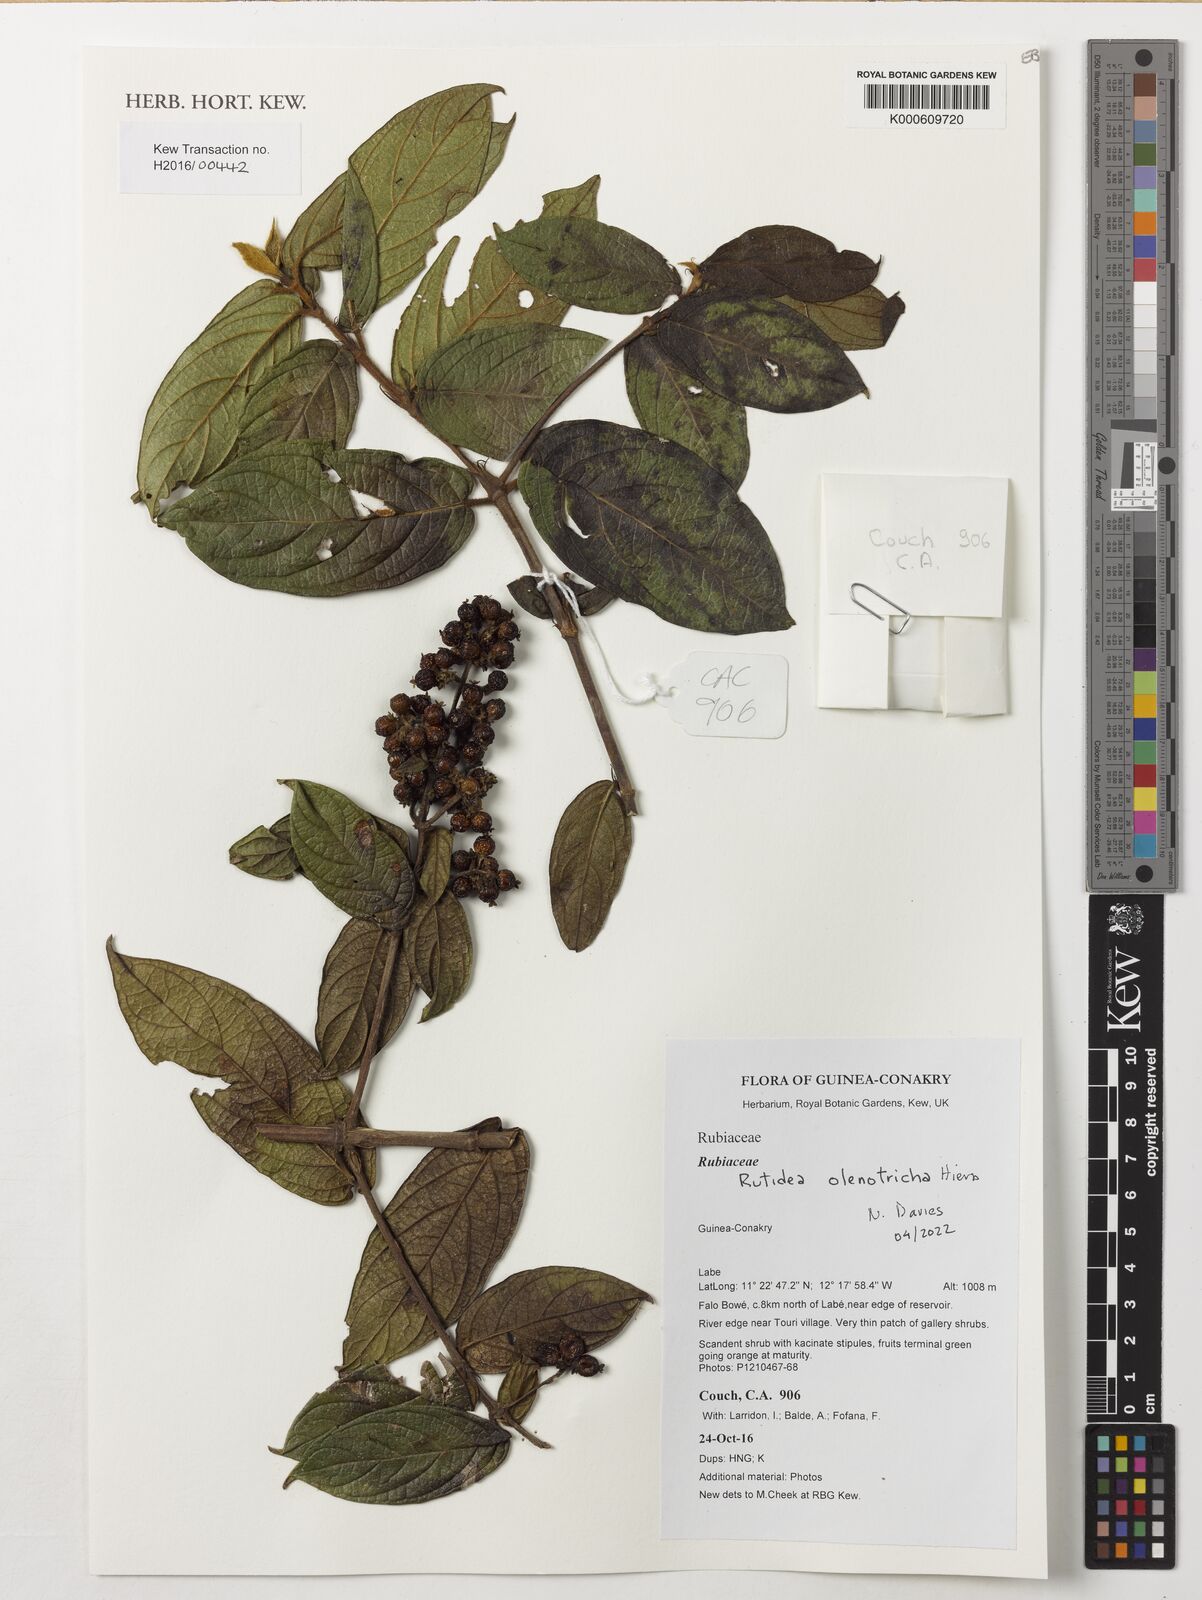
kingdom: Plantae
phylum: Tracheophyta
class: Magnoliopsida
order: Gentianales
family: Rubiaceae
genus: Rutidea
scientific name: Rutidea olenotricha
